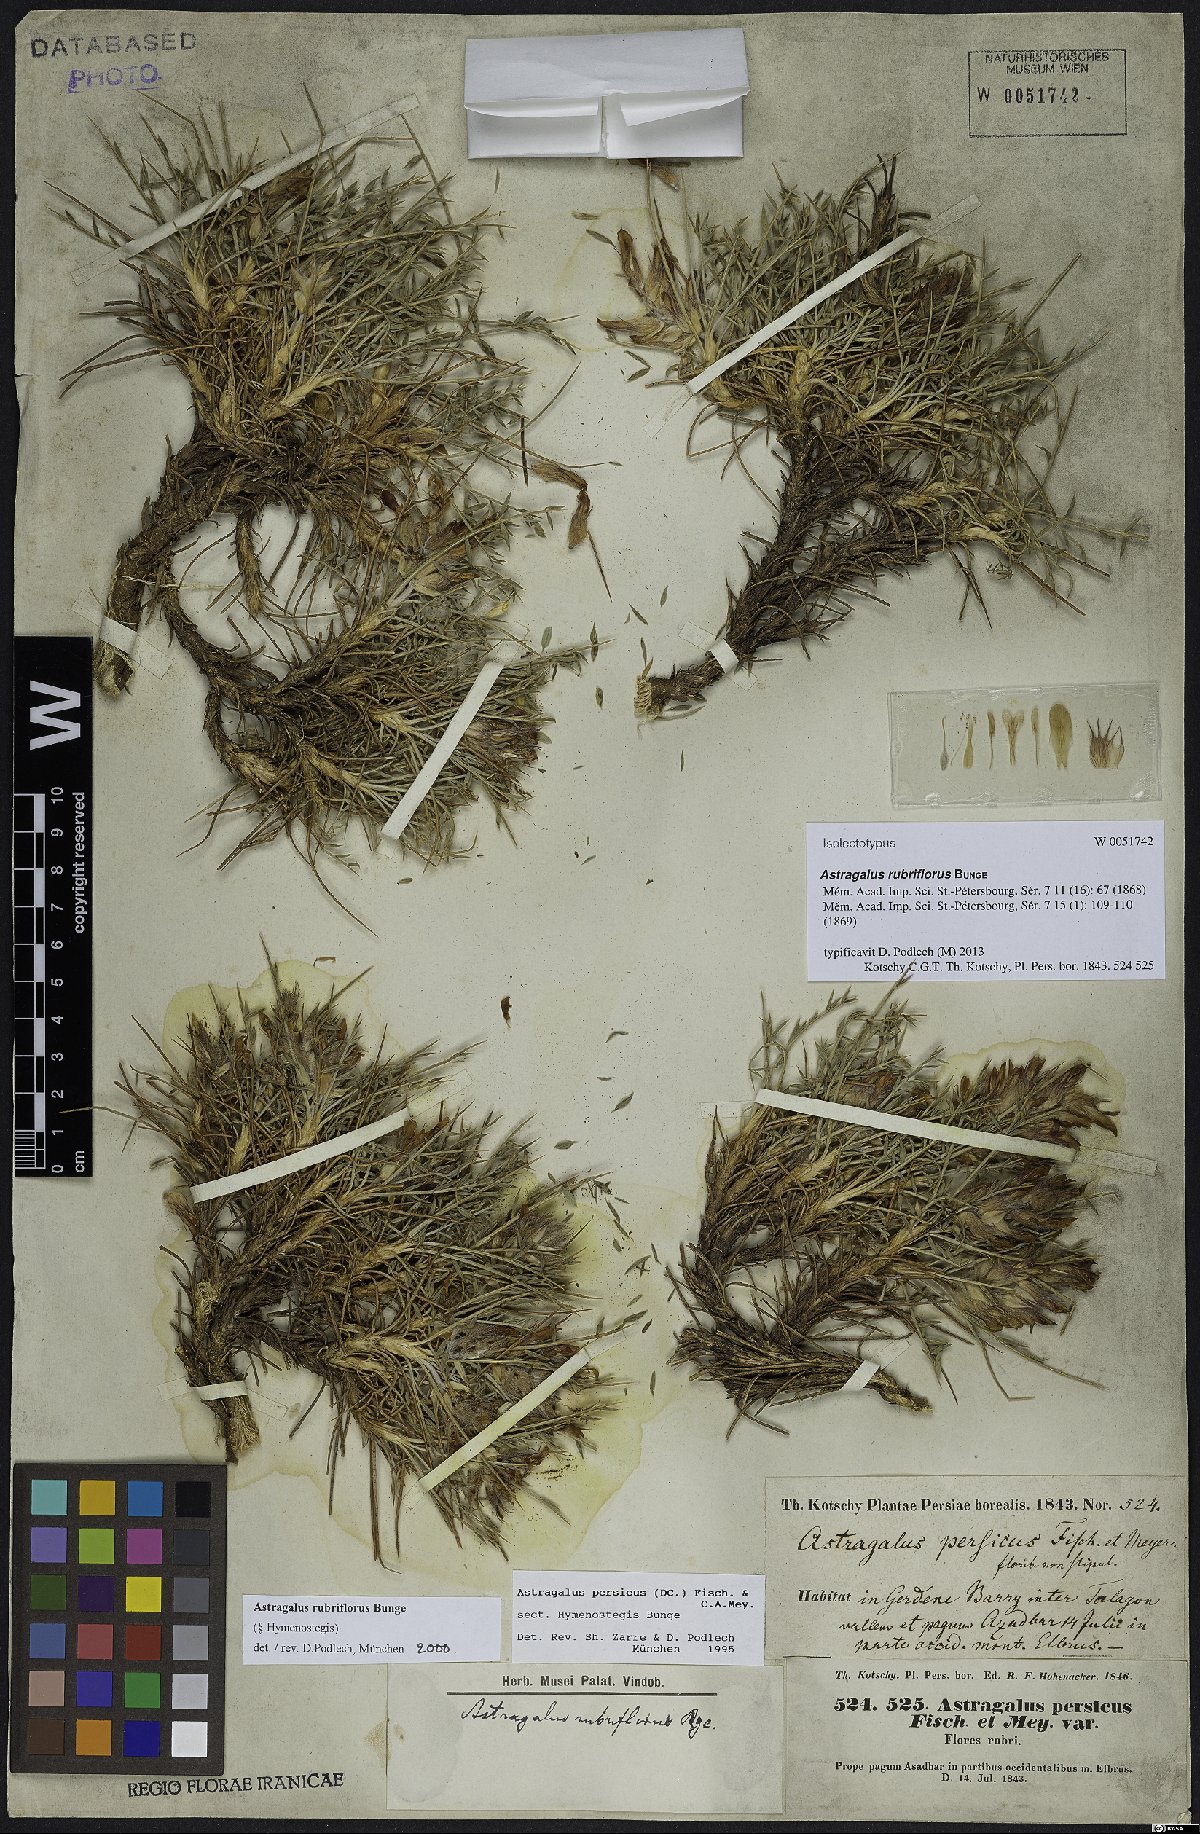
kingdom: Plantae
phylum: Tracheophyta
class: Magnoliopsida
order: Fabales
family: Fabaceae
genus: Astragalus
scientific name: Astragalus rubriflorus
